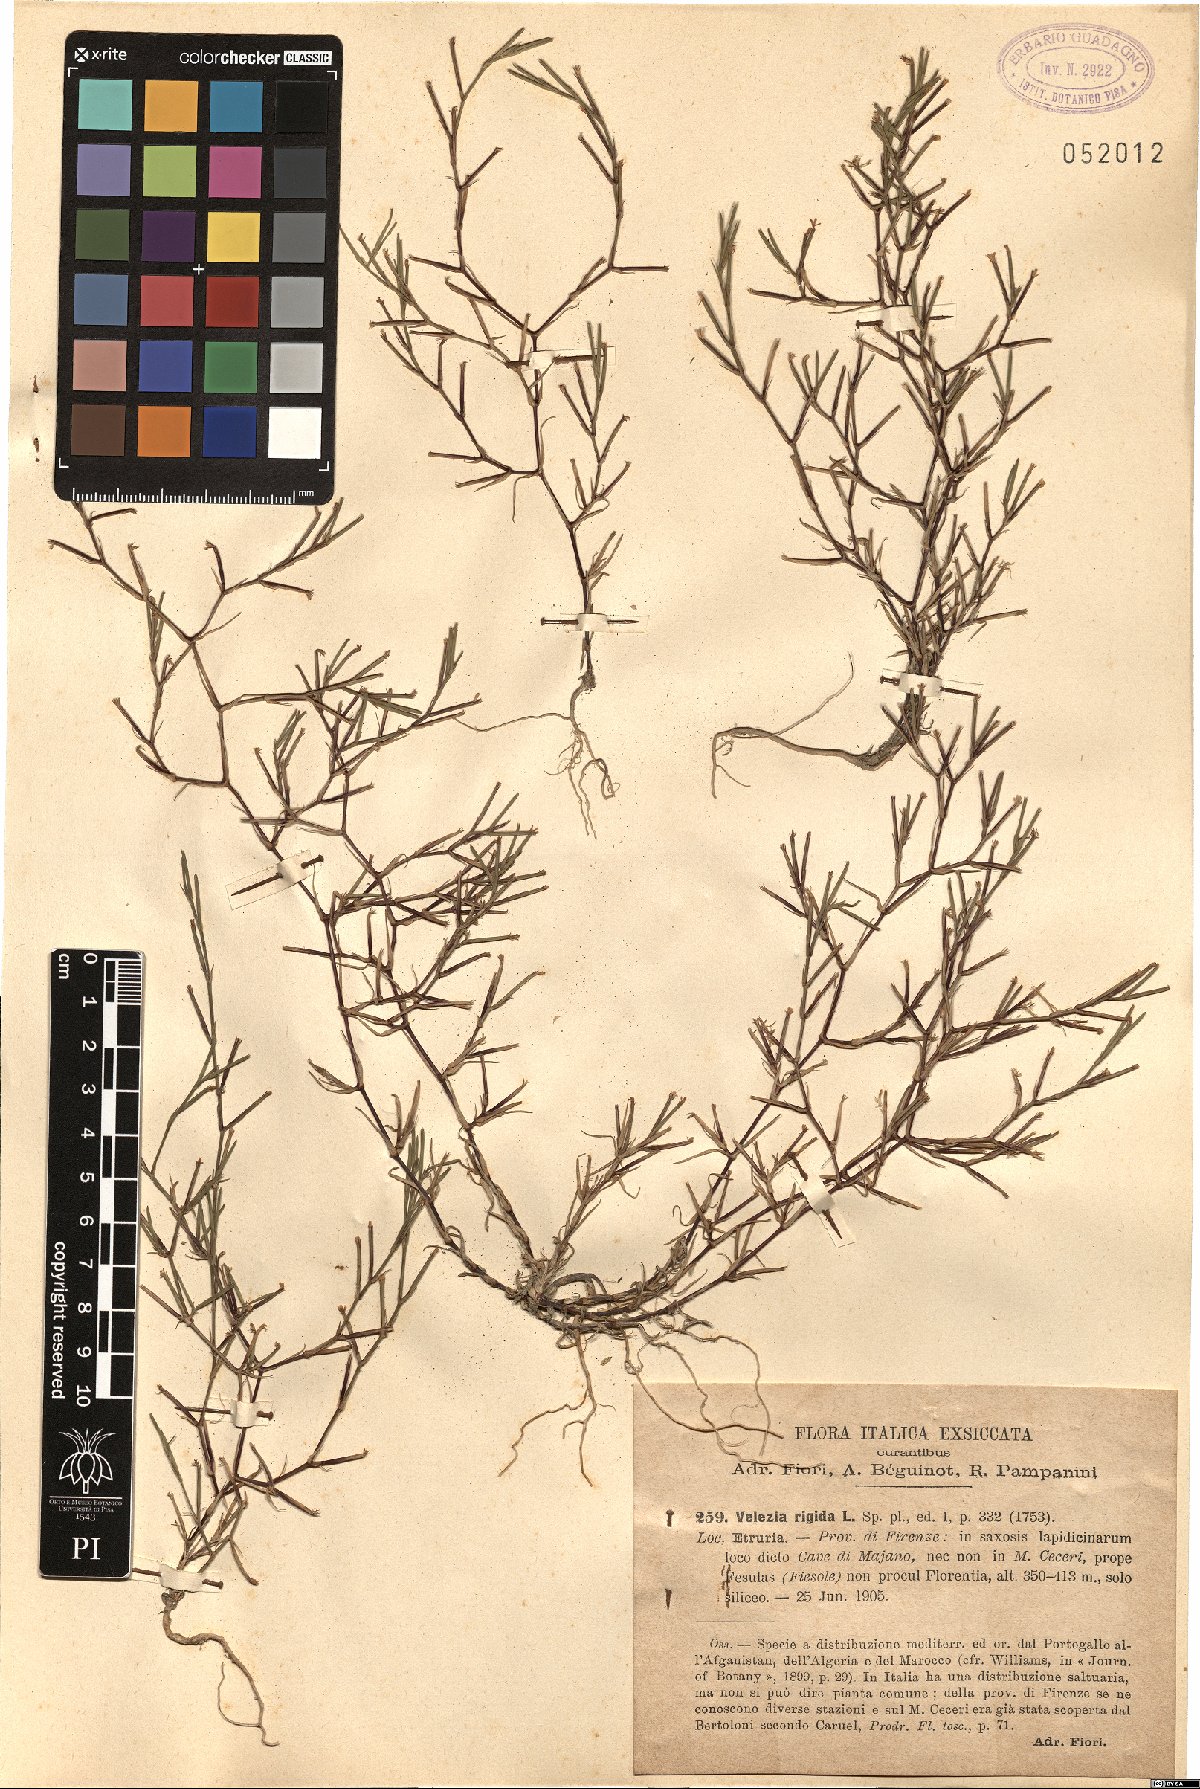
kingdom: Plantae
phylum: Tracheophyta
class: Magnoliopsida
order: Caryophyllales
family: Caryophyllaceae
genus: Dianthus
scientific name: Dianthus nudiflorus
